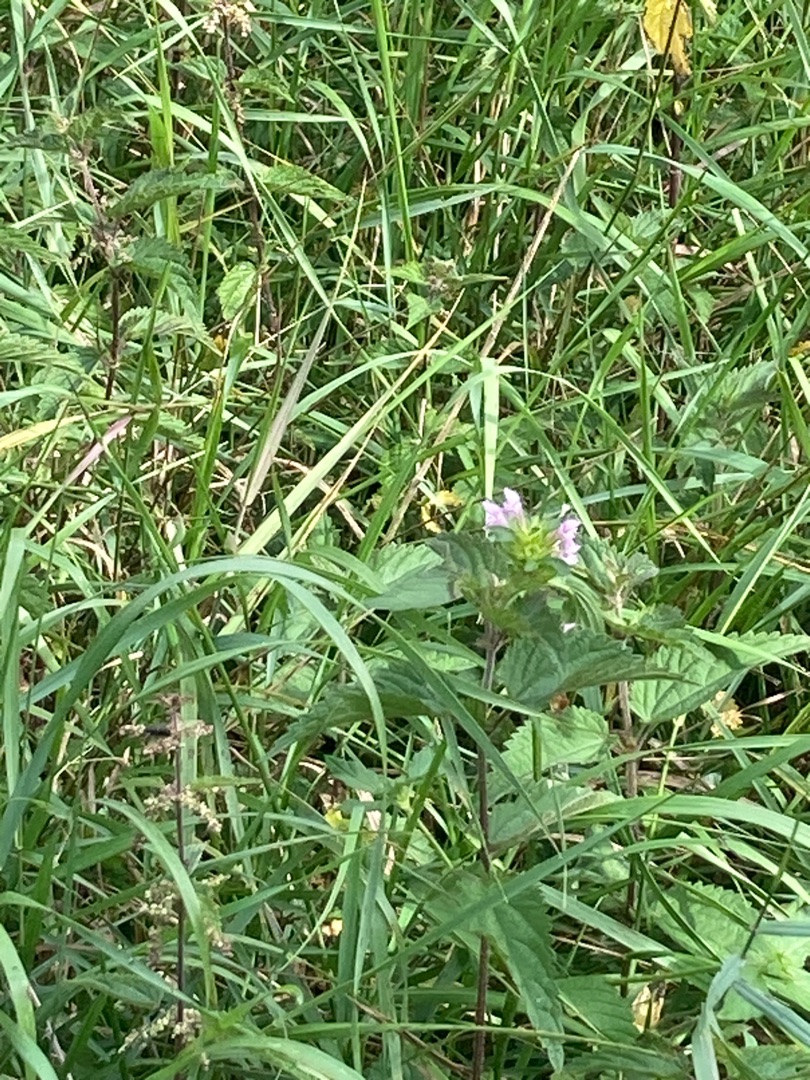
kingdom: Plantae
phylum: Tracheophyta
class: Magnoliopsida
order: Lamiales
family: Lamiaceae
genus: Galeopsis
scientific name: Galeopsis
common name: Hanekroslægten
